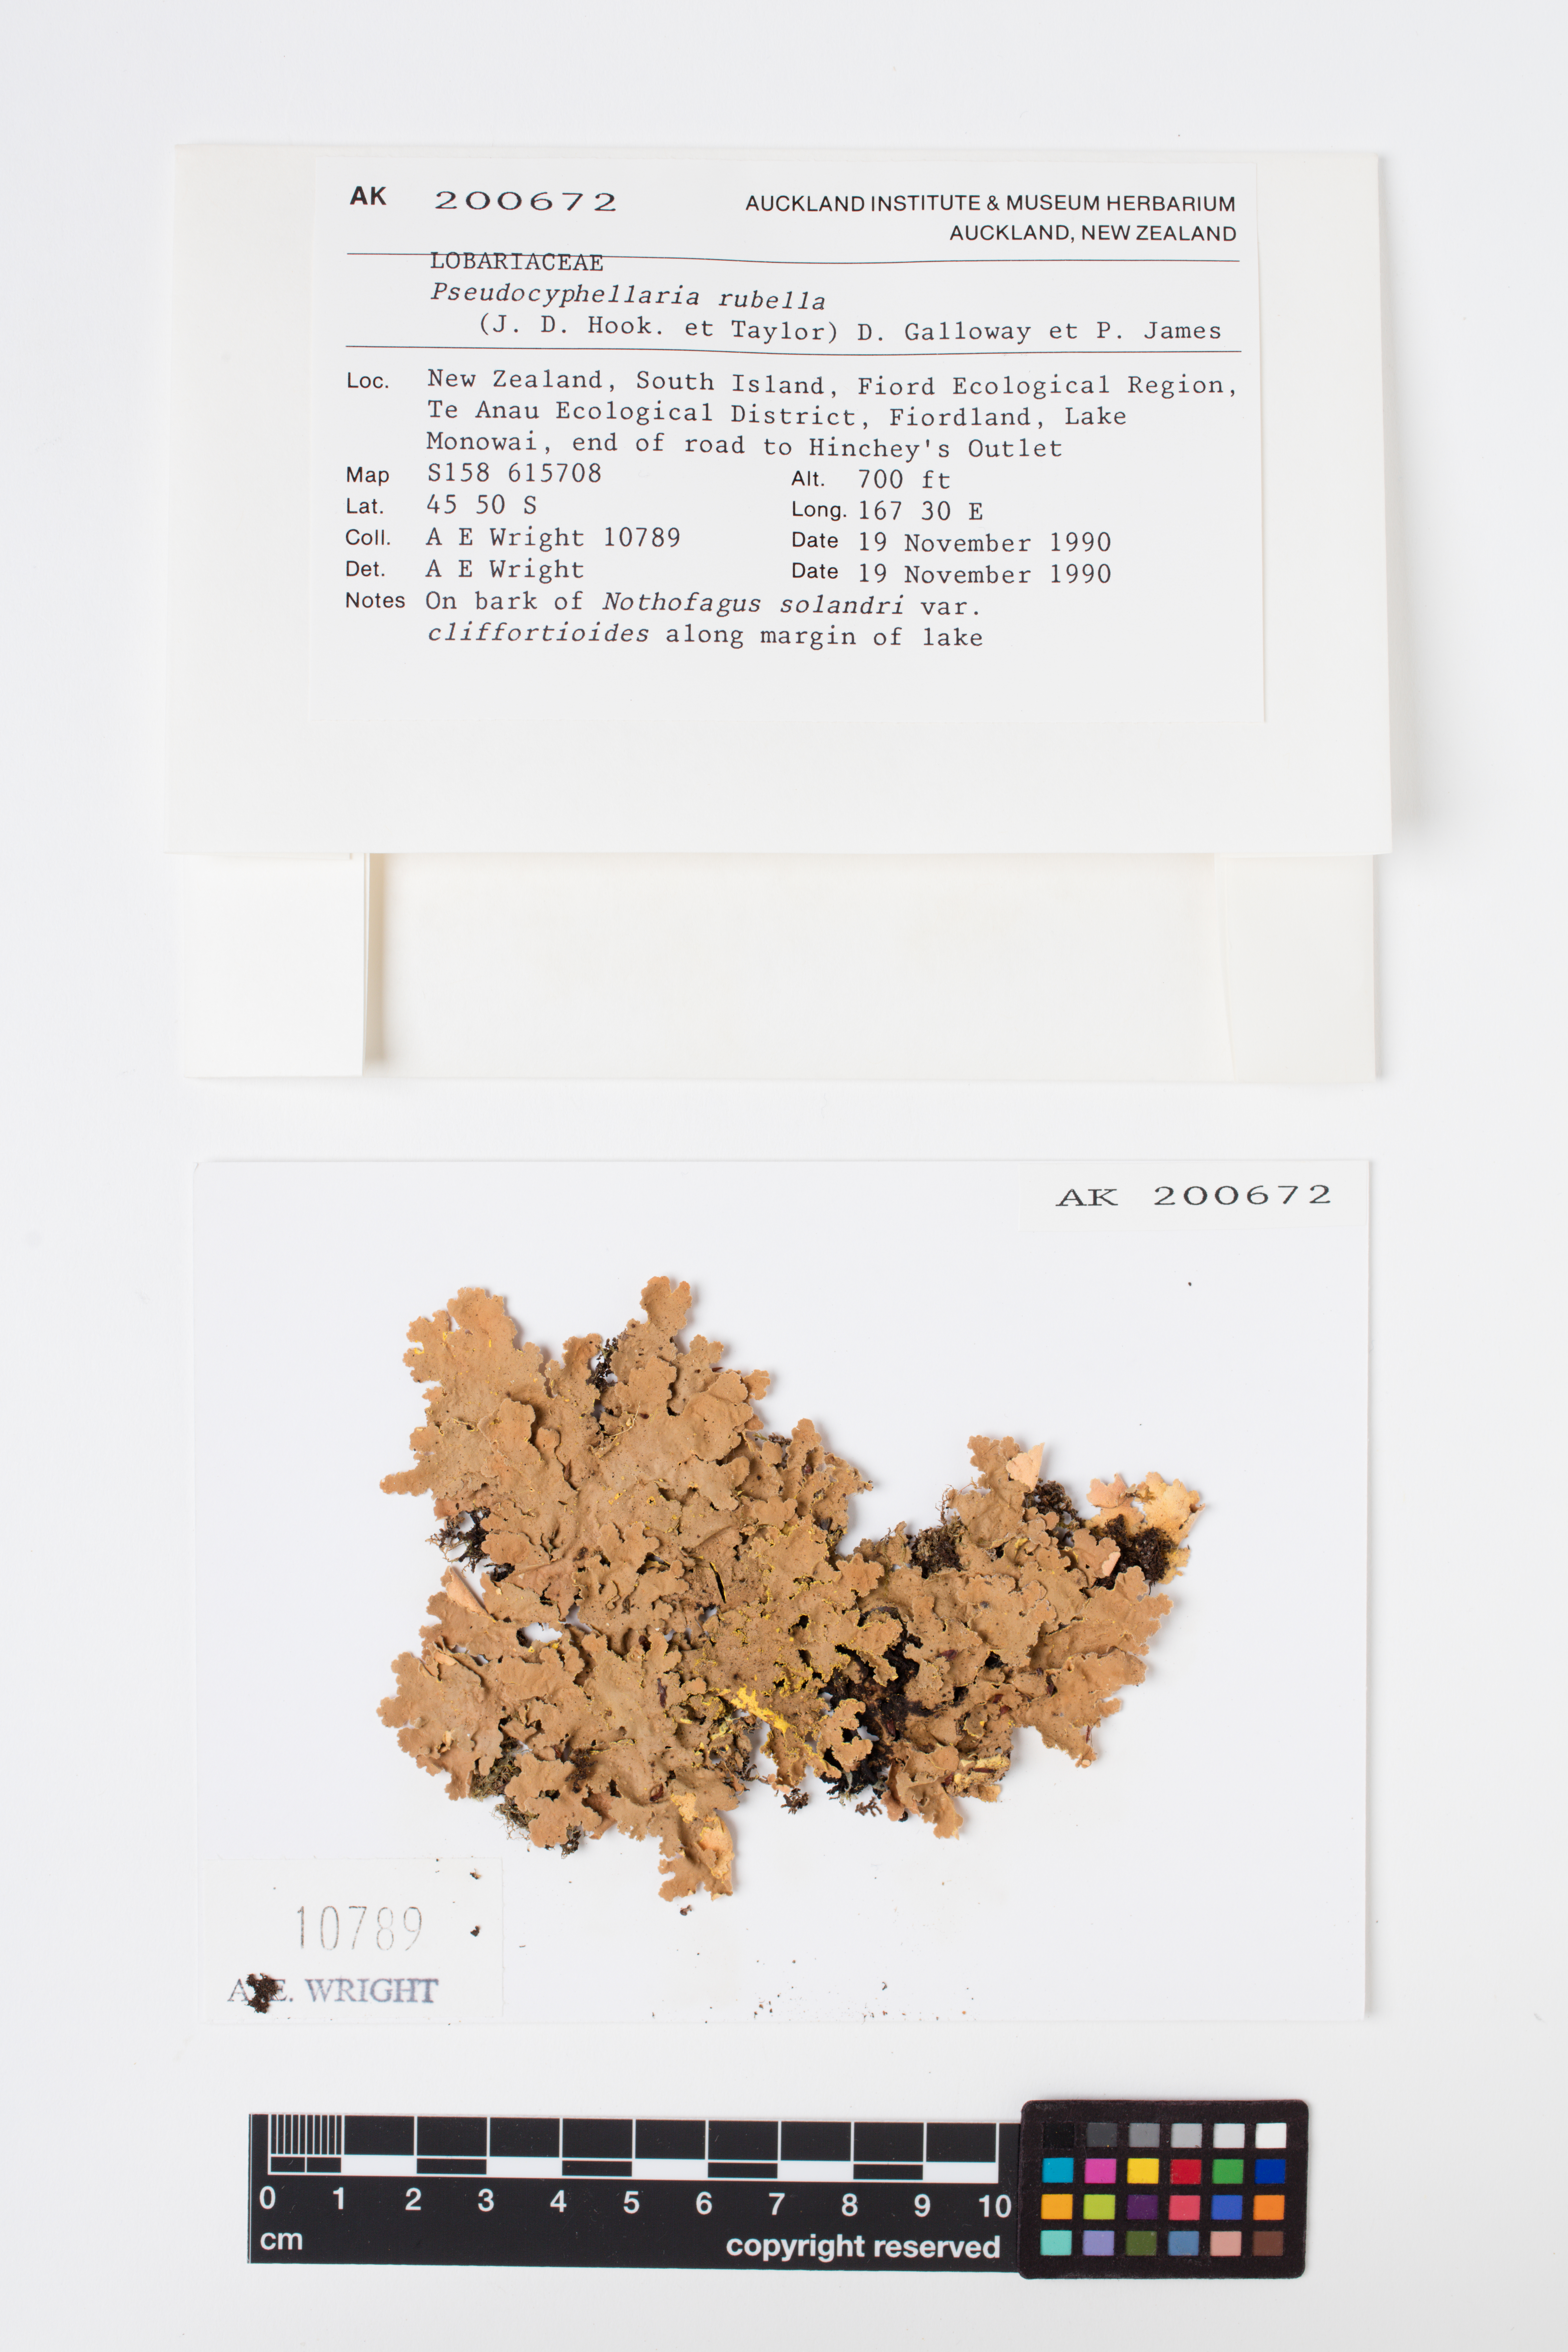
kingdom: Fungi
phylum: Ascomycota
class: Lecanoromycetes
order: Peltigerales
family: Lobariaceae
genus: Pseudocyphellaria
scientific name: Pseudocyphellaria rubella
